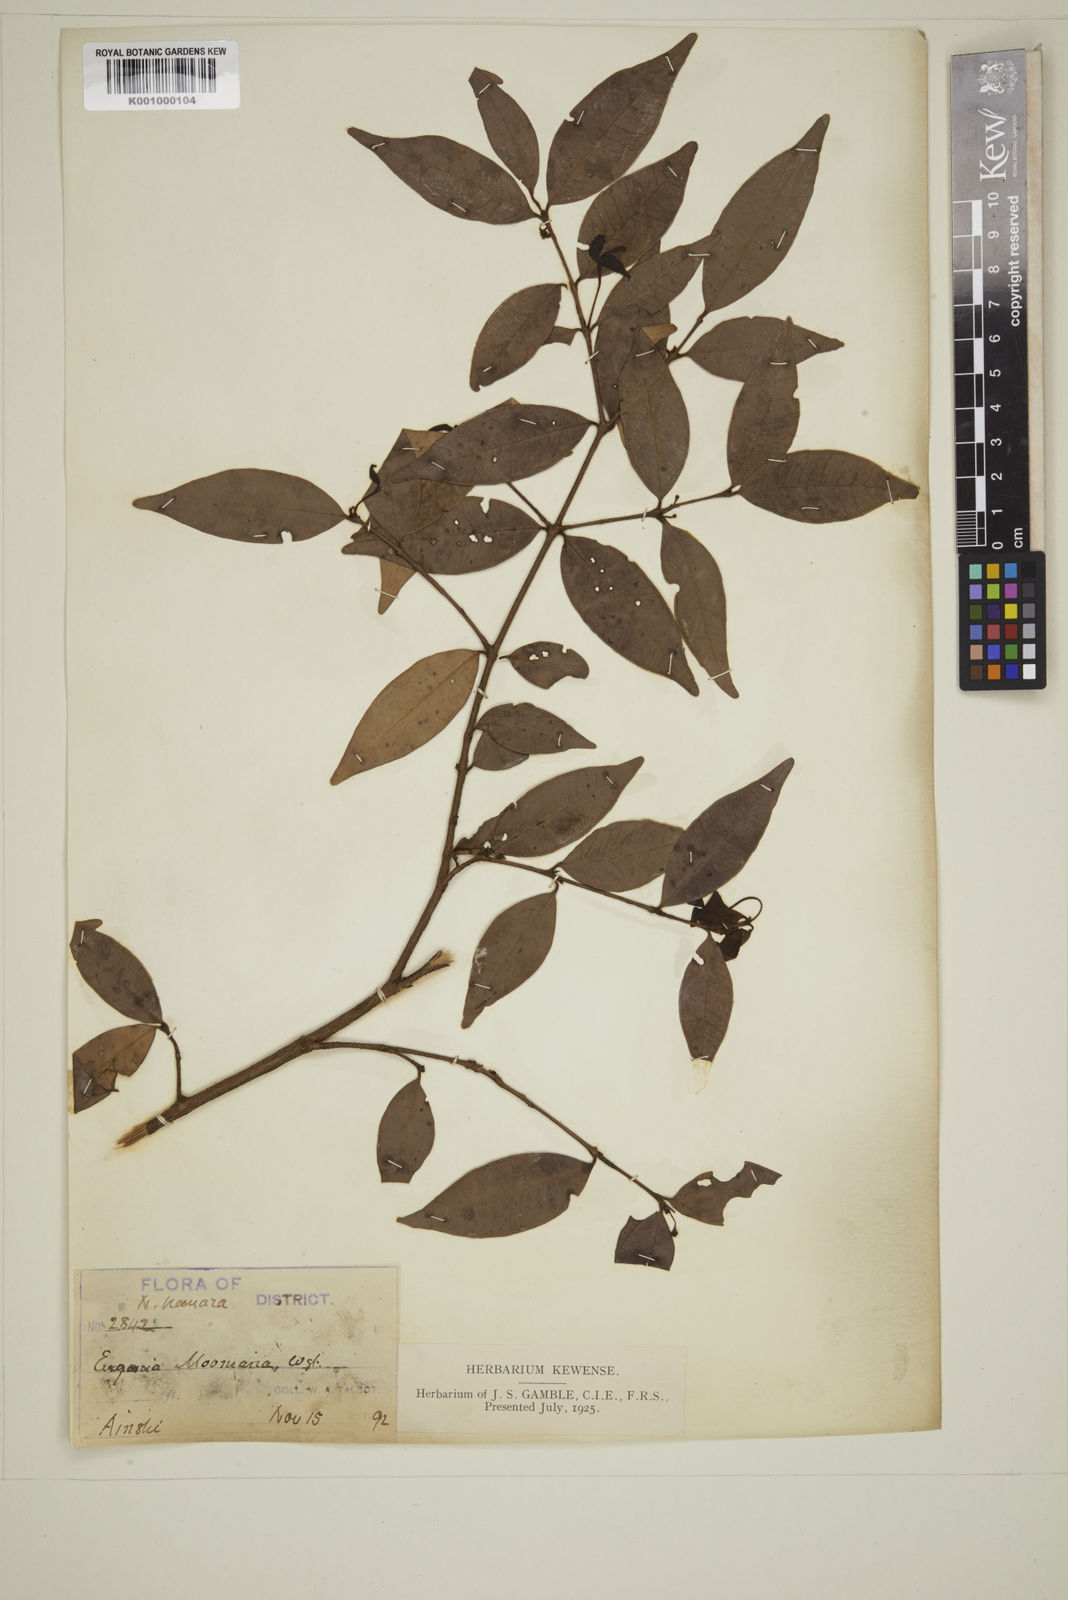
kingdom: Plantae
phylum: Tracheophyta
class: Magnoliopsida
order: Myrtales
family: Myrtaceae
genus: Eugenia
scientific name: Eugenia thwaitesii
